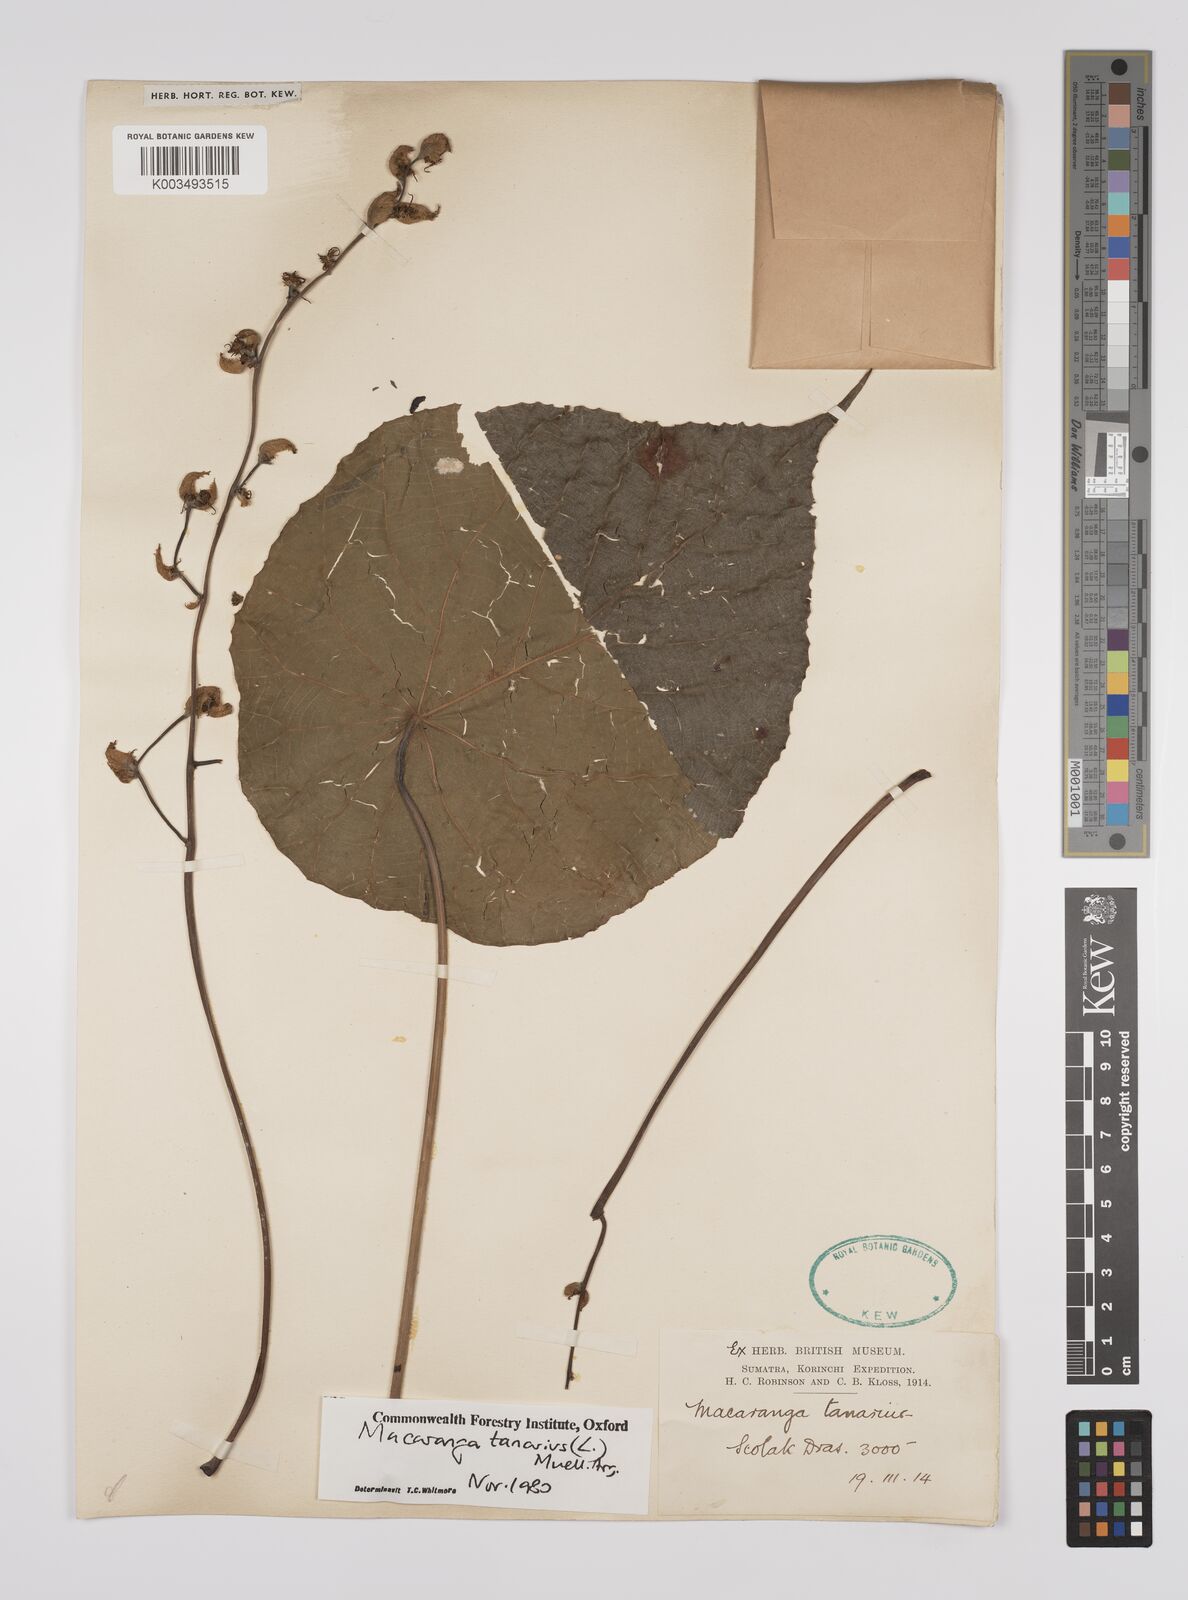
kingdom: Plantae
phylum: Tracheophyta
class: Magnoliopsida
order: Malpighiales
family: Euphorbiaceae
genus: Macaranga
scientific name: Macaranga tanarius
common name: Parasol leaf tree
